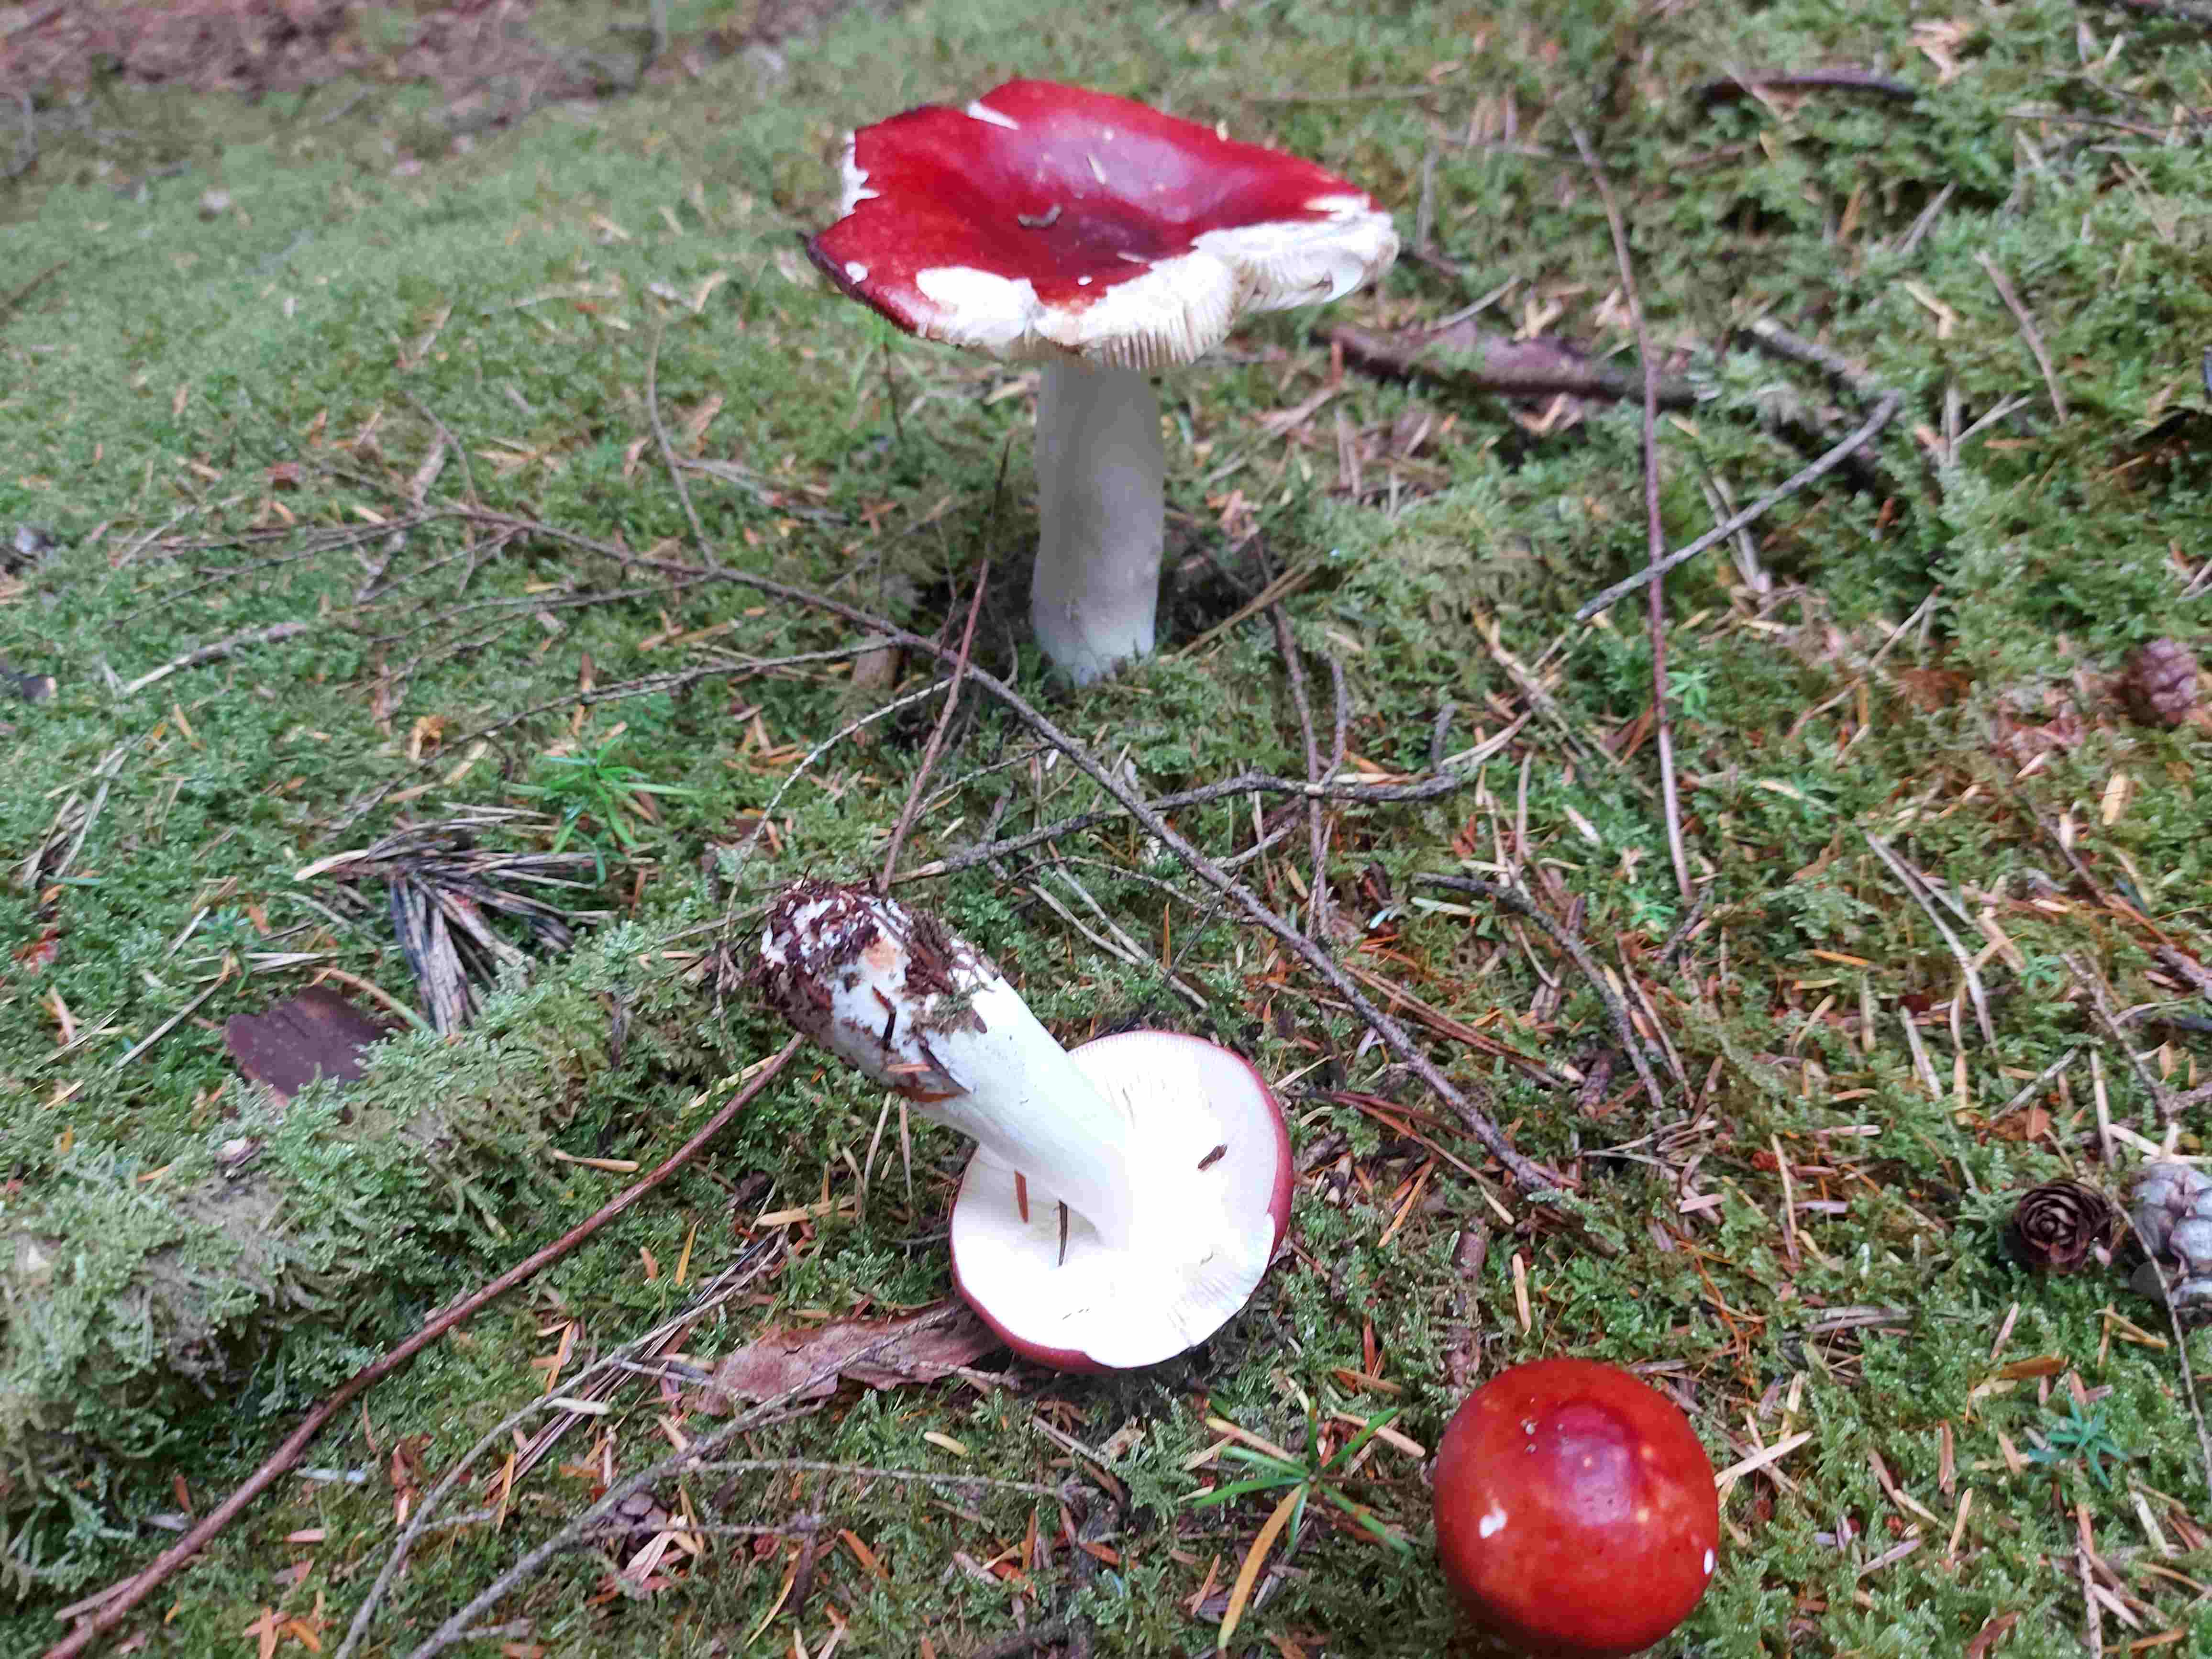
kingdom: Fungi
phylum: Basidiomycota
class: Agaricomycetes
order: Russulales
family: Russulaceae
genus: Russula
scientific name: Russula paludosa
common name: prægtig skørhat
